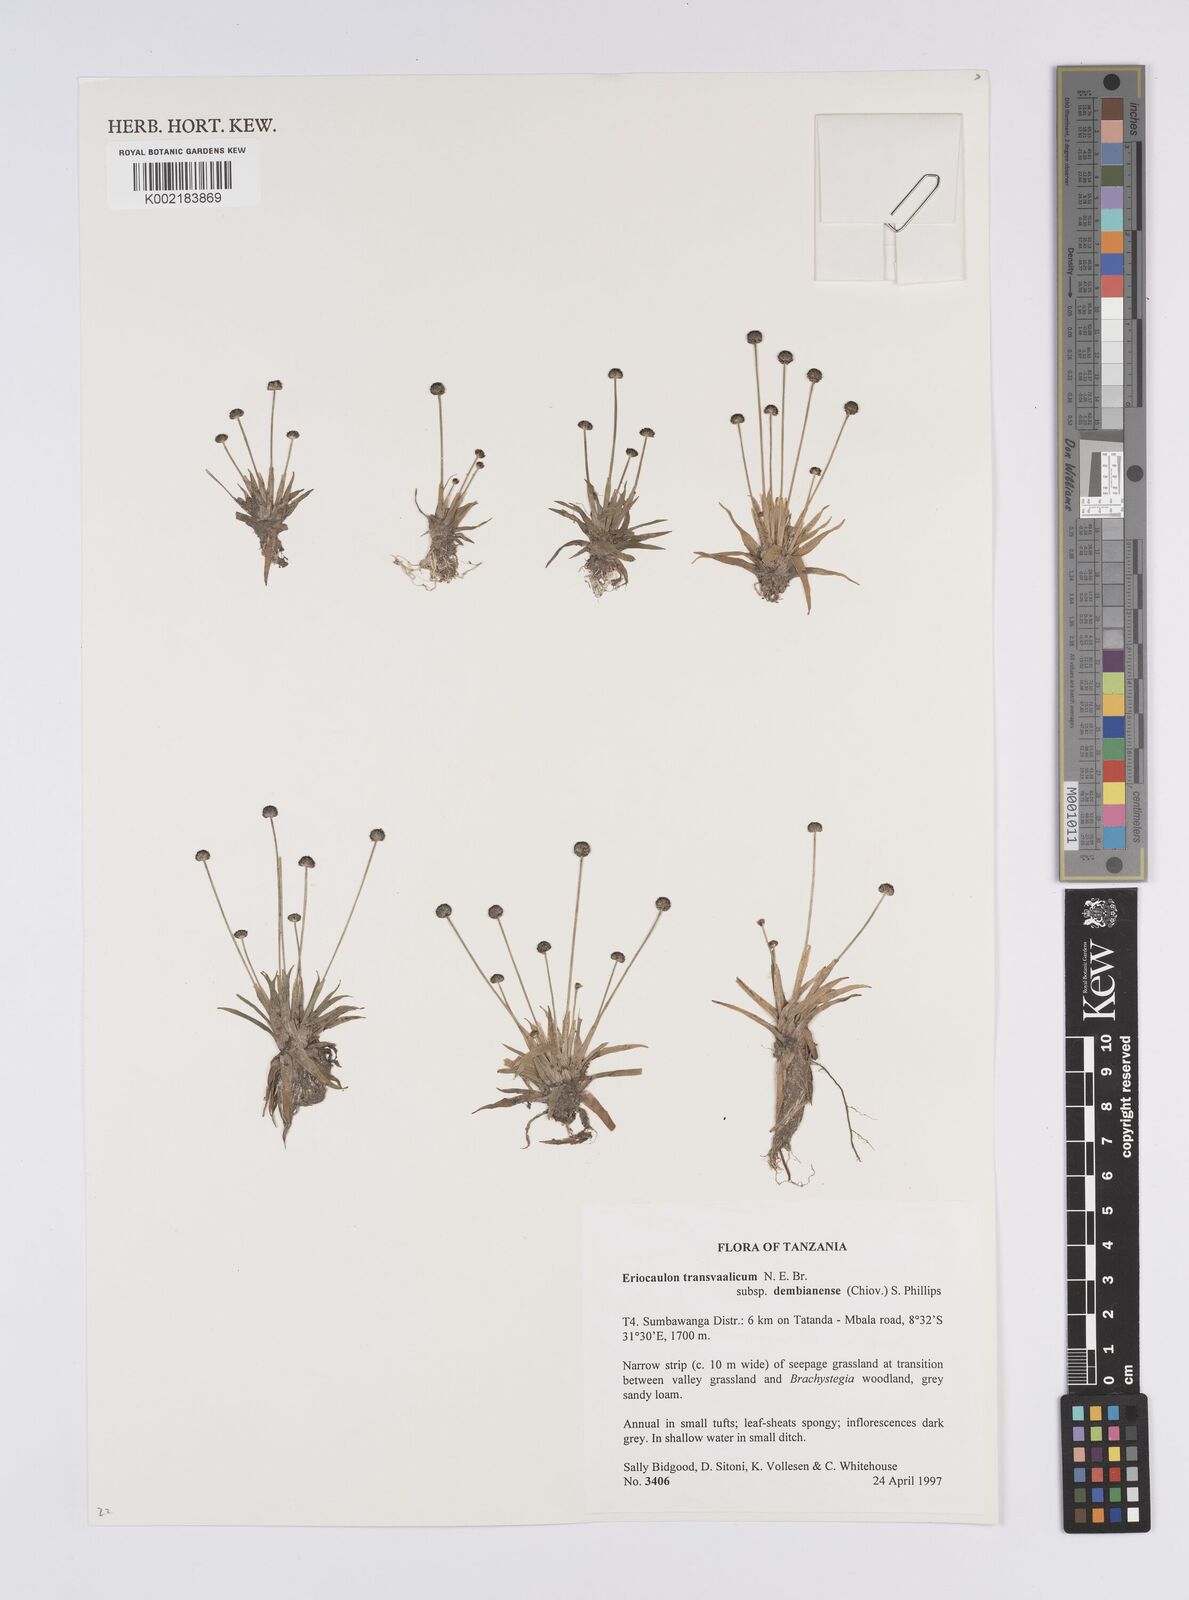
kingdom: Plantae
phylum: Tracheophyta
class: Liliopsida
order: Poales
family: Eriocaulaceae
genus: Eriocaulon
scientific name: Eriocaulon transvaalicum
